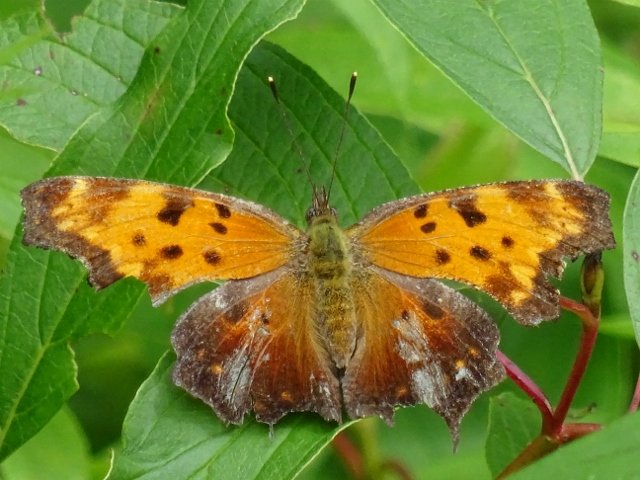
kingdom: Animalia
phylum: Arthropoda
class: Insecta
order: Lepidoptera
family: Nymphalidae
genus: Polygonia
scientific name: Polygonia comma
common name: Eastern Comma
